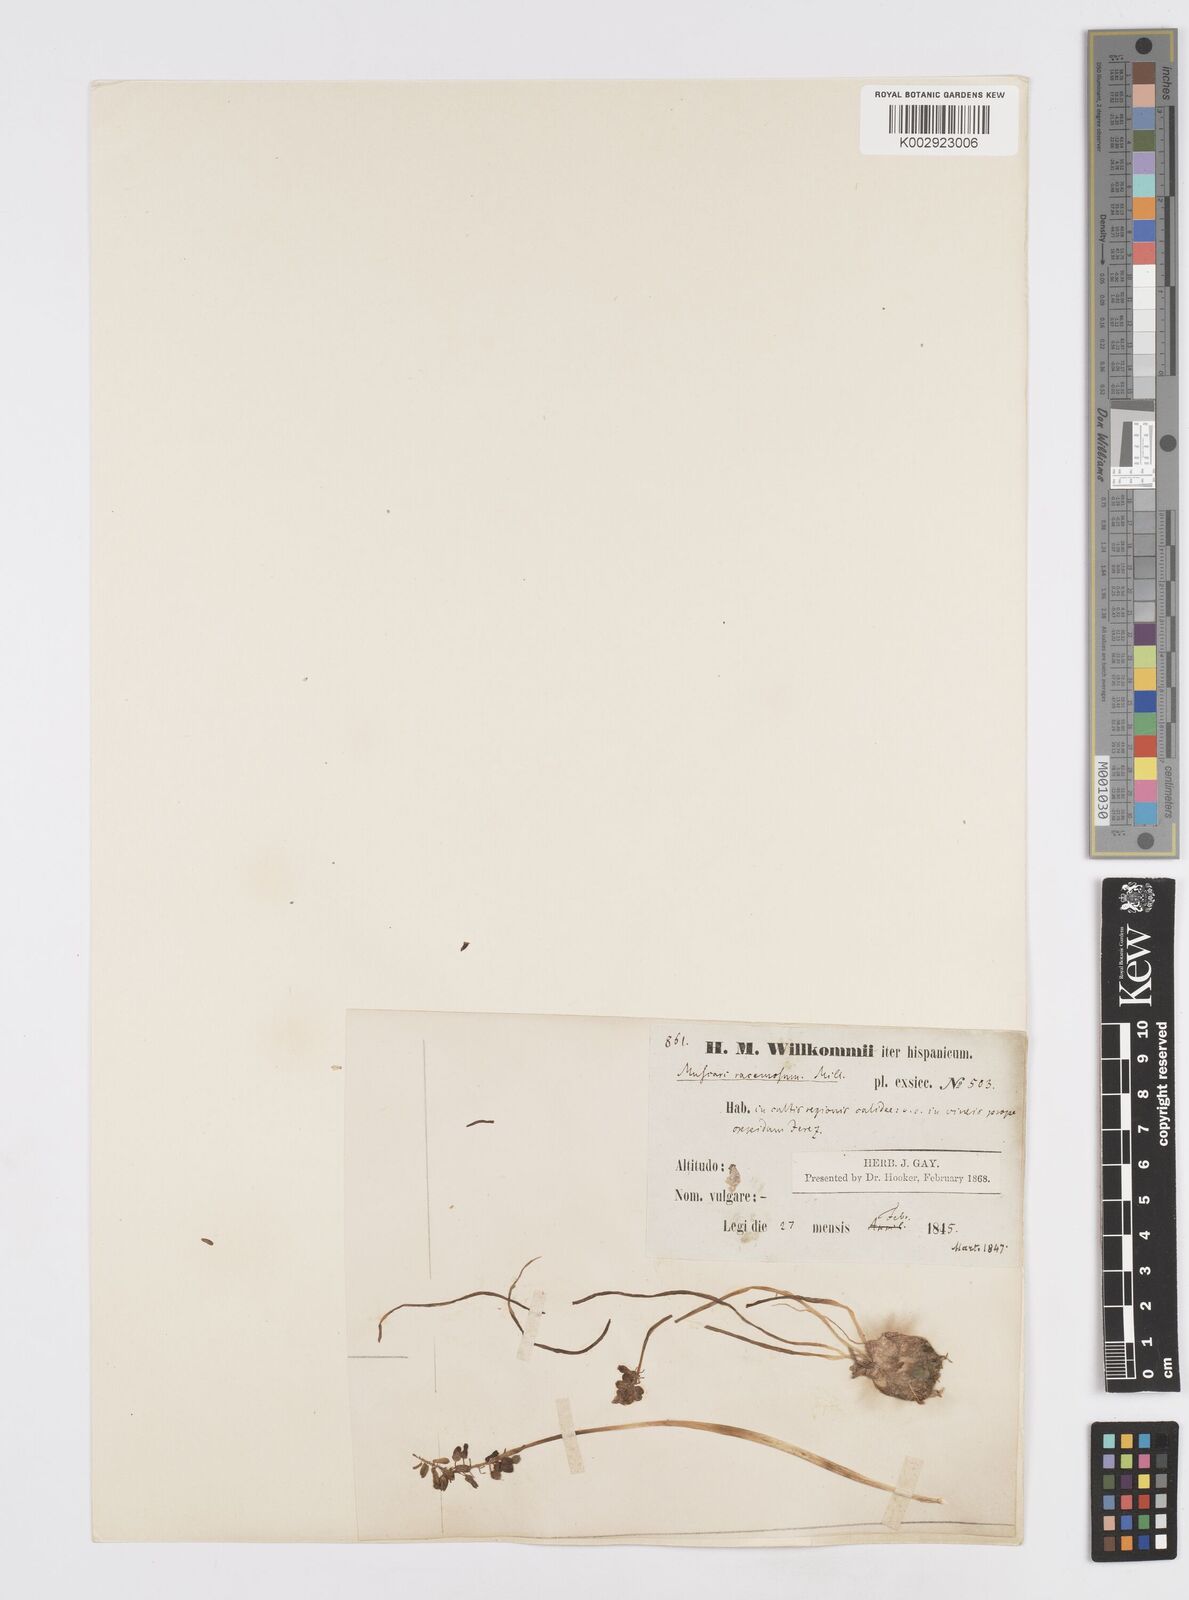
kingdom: Plantae
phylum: Tracheophyta
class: Liliopsida
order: Asparagales
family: Asparagaceae
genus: Muscarimia
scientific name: Muscarimia muscari
